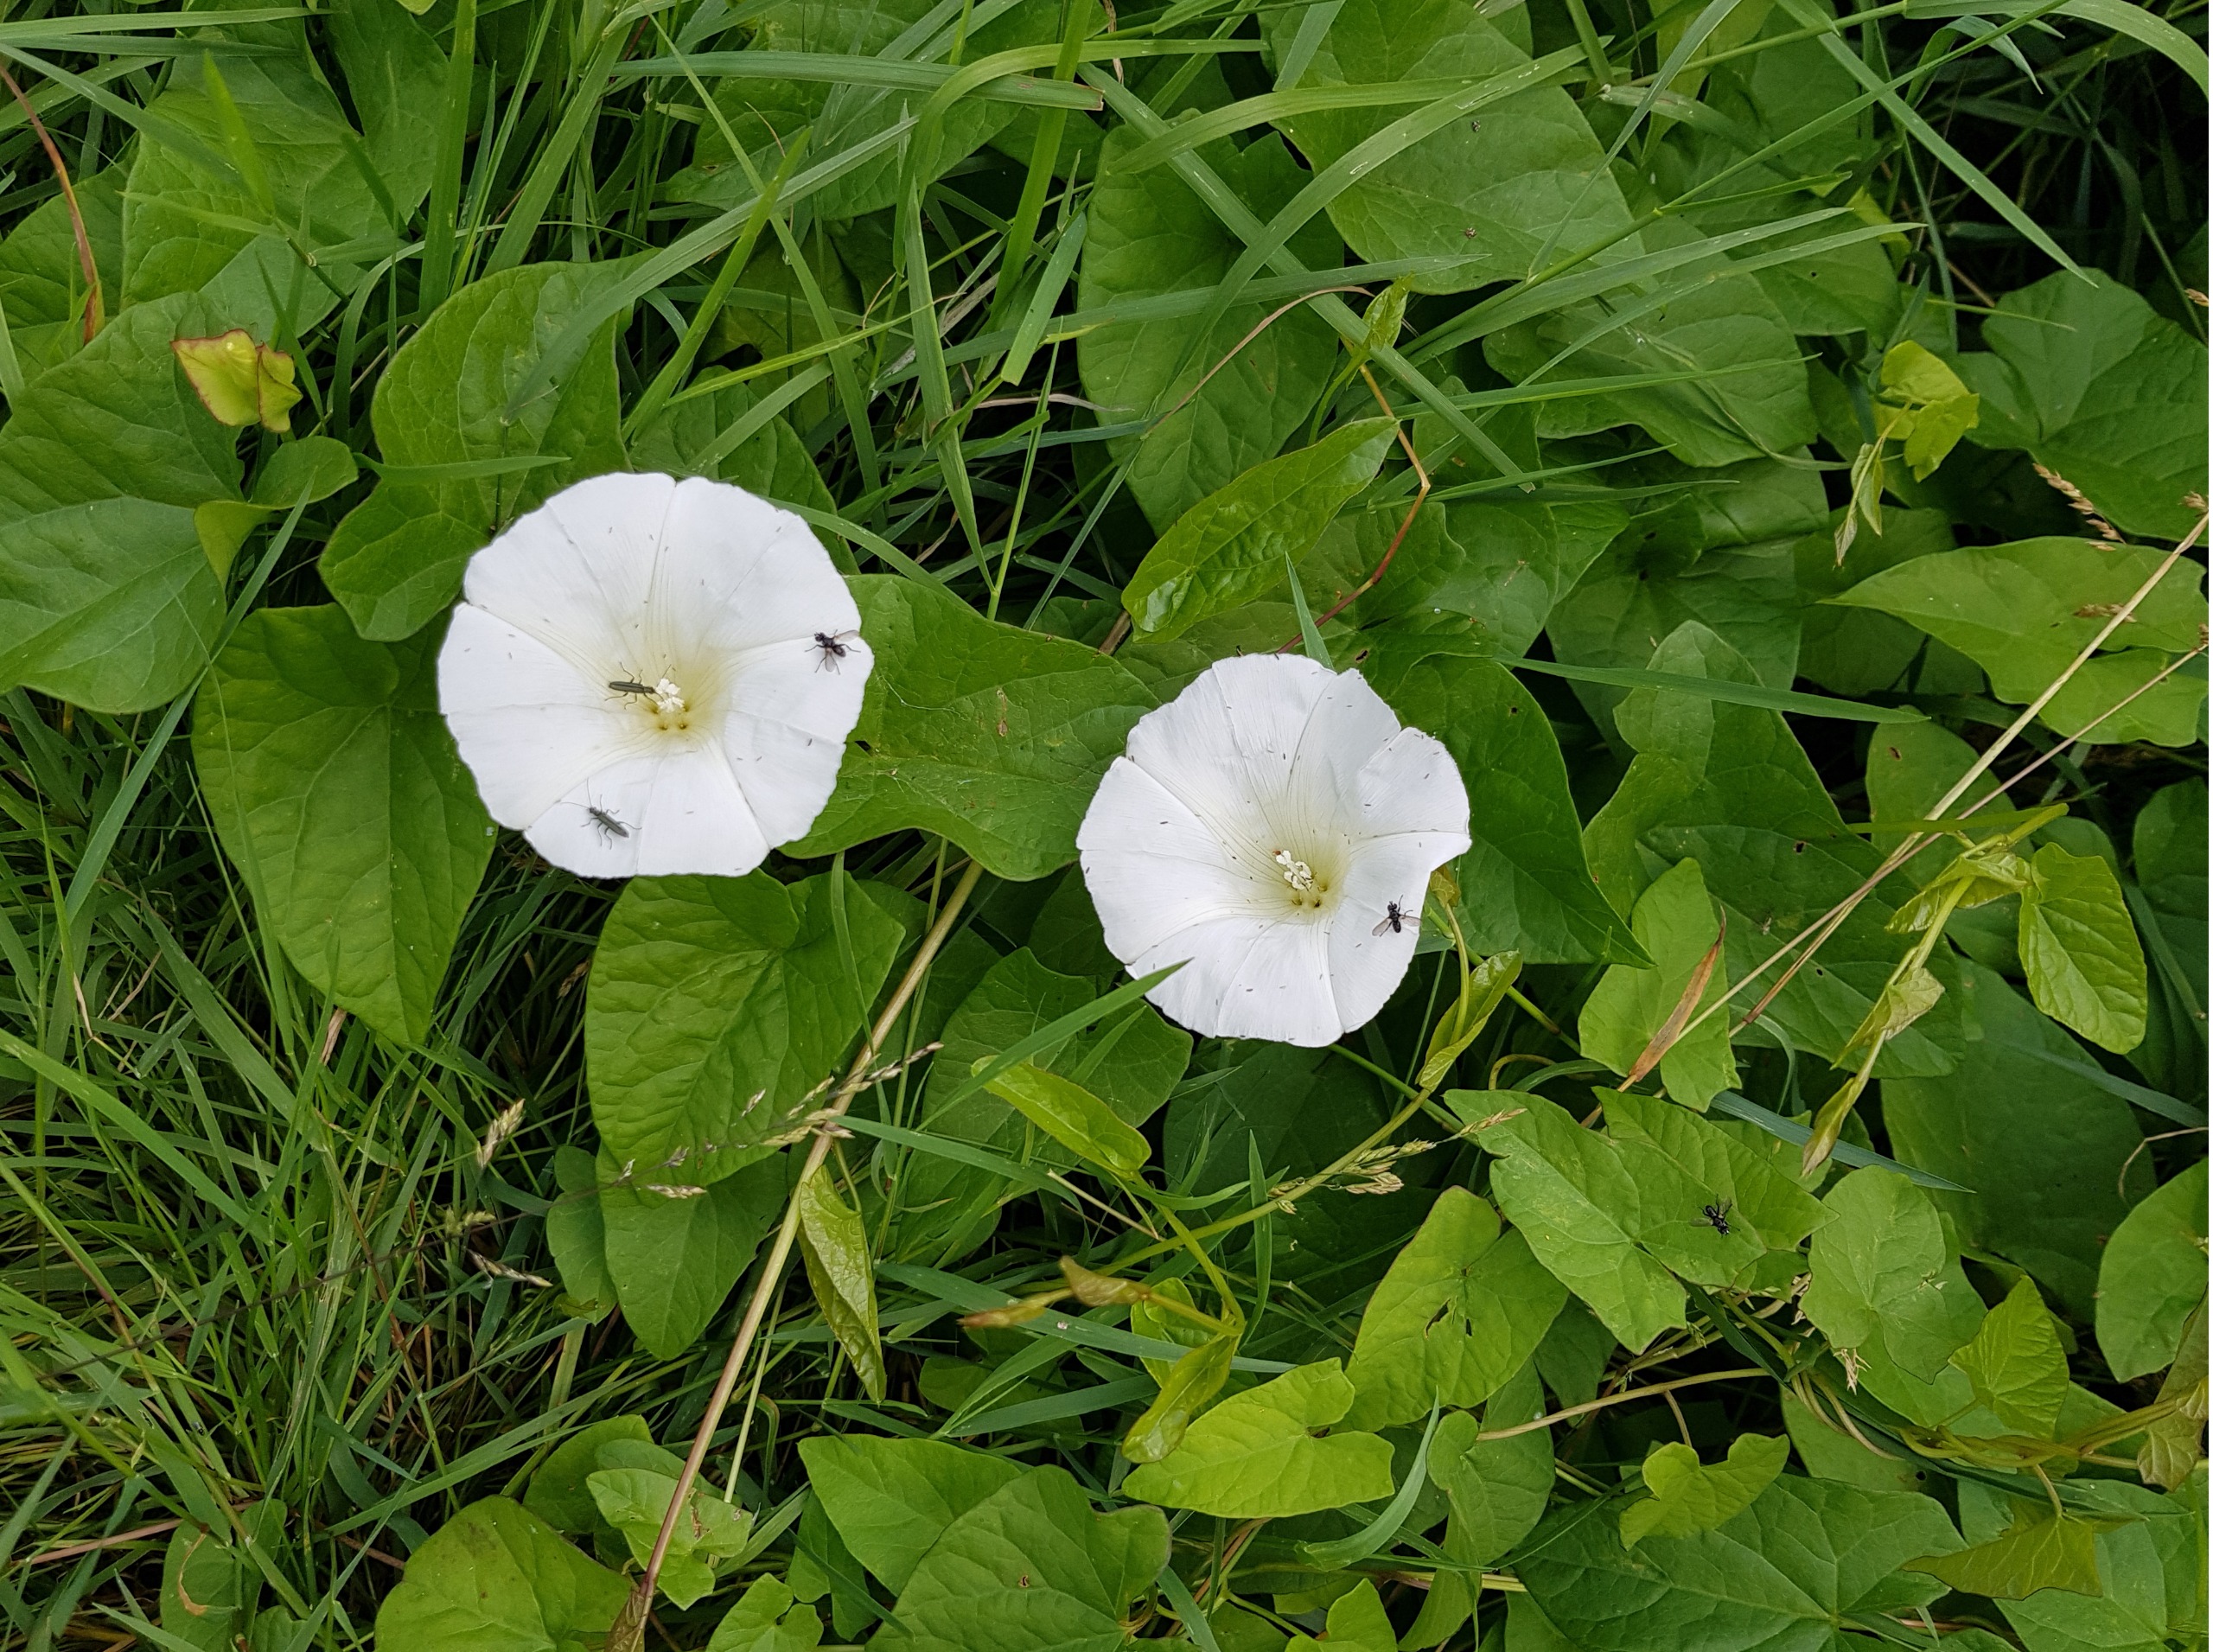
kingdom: Plantae
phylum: Tracheophyta
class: Magnoliopsida
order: Solanales
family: Convolvulaceae
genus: Calystegia
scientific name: Calystegia sepium
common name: Gærde-snerle
